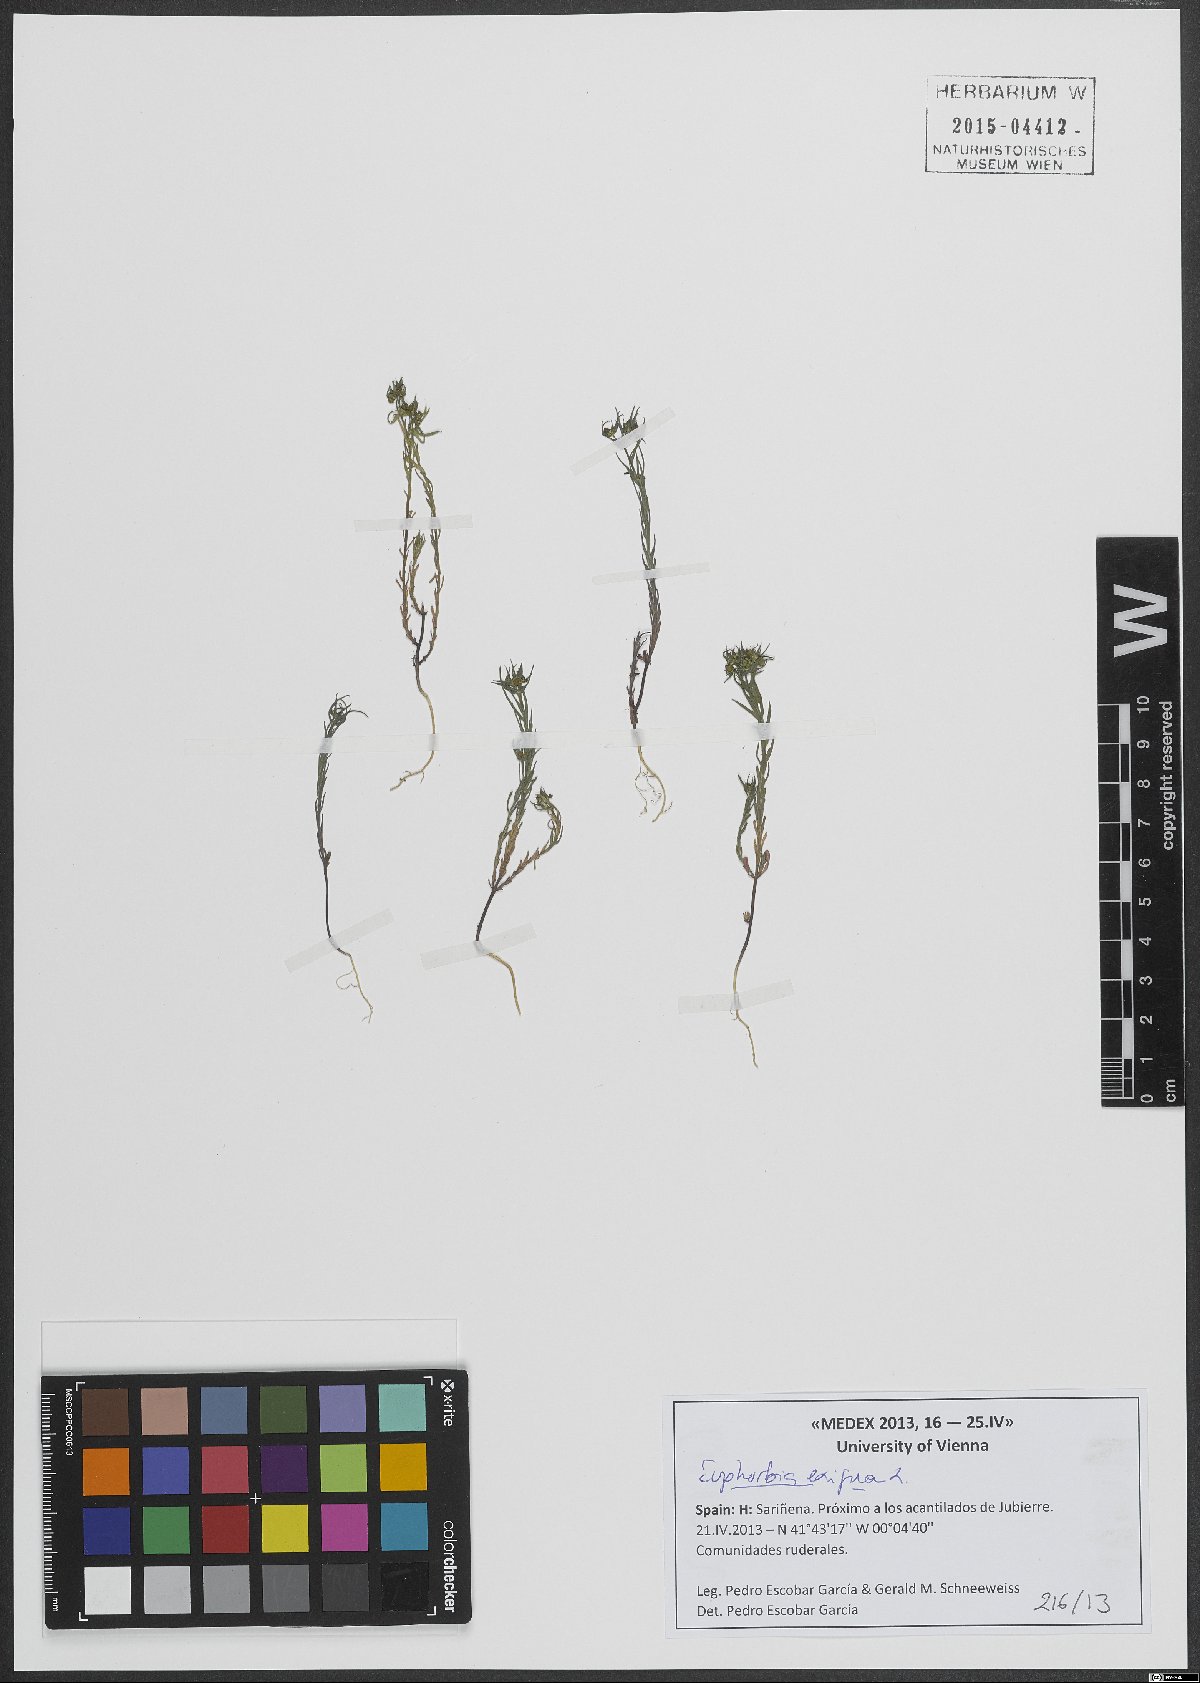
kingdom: Plantae
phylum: Tracheophyta
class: Magnoliopsida
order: Malpighiales
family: Euphorbiaceae
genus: Euphorbia
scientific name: Euphorbia exigua
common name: Dwarf spurge
